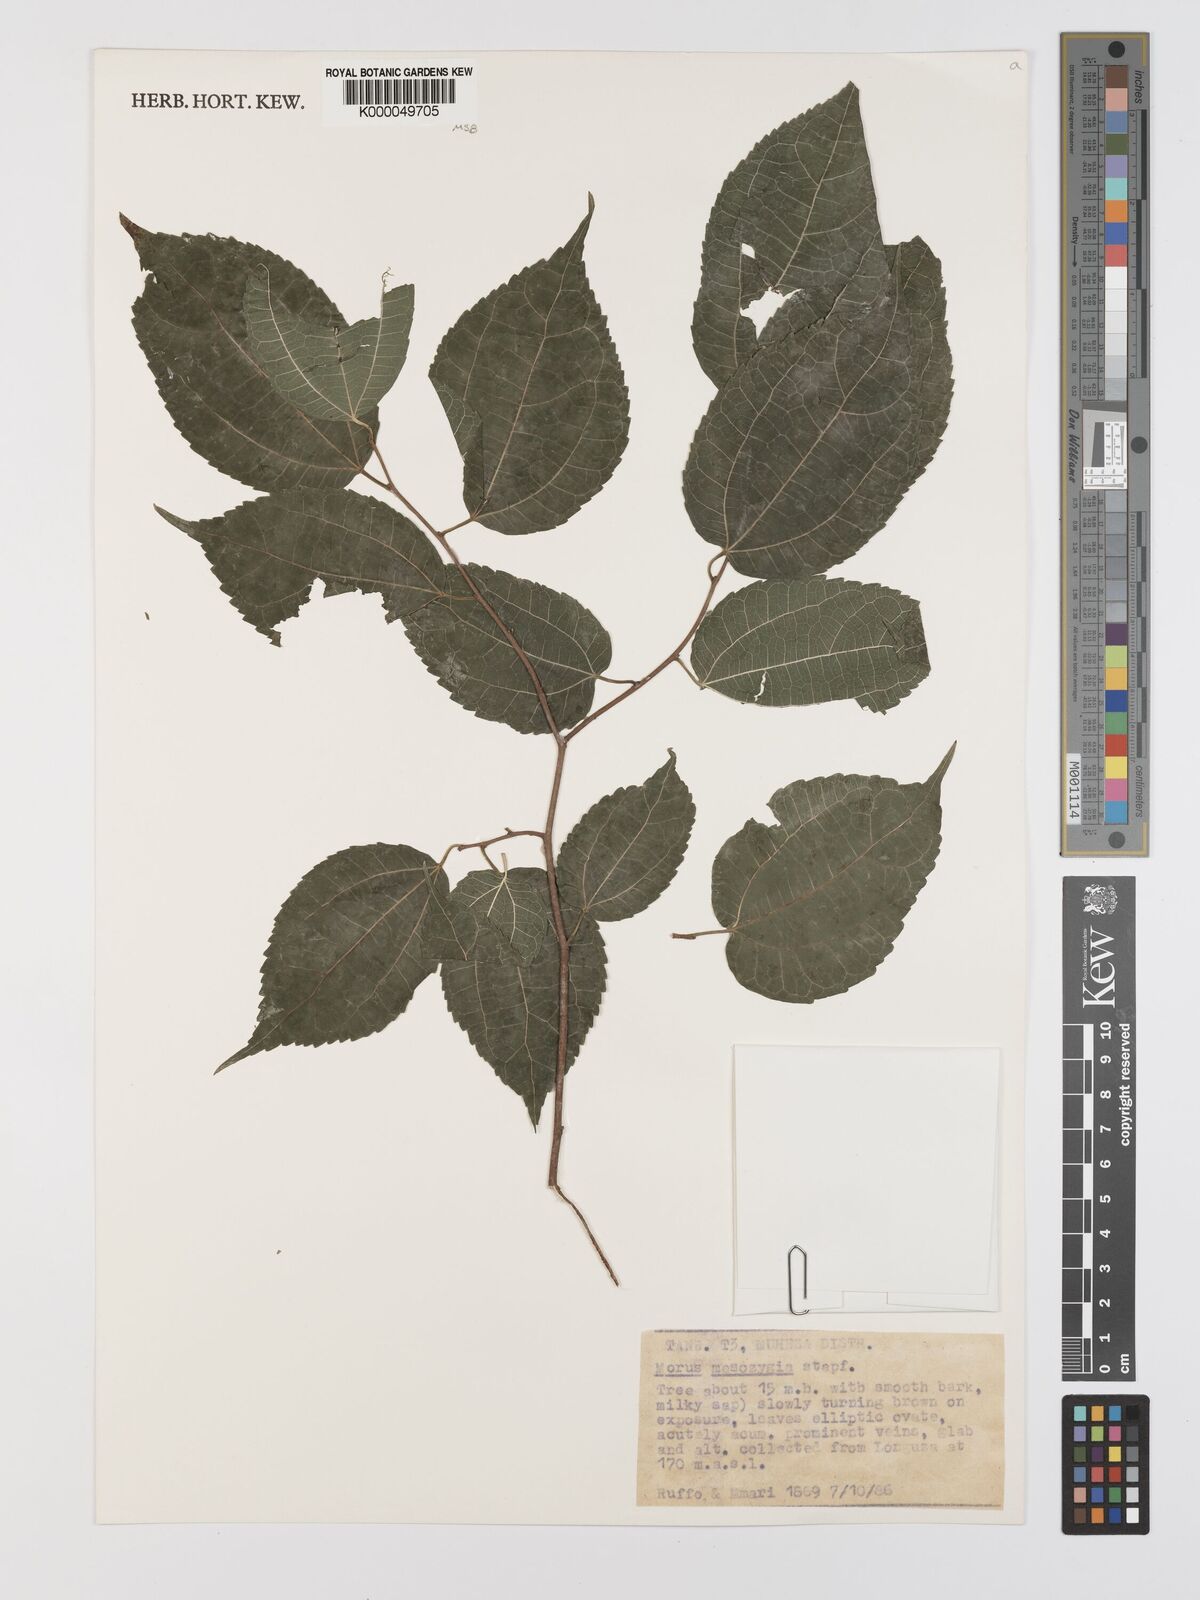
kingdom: Plantae
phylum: Tracheophyta
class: Magnoliopsida
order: Rosales
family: Moraceae
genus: Afromorus
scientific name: Afromorus mesozygia
